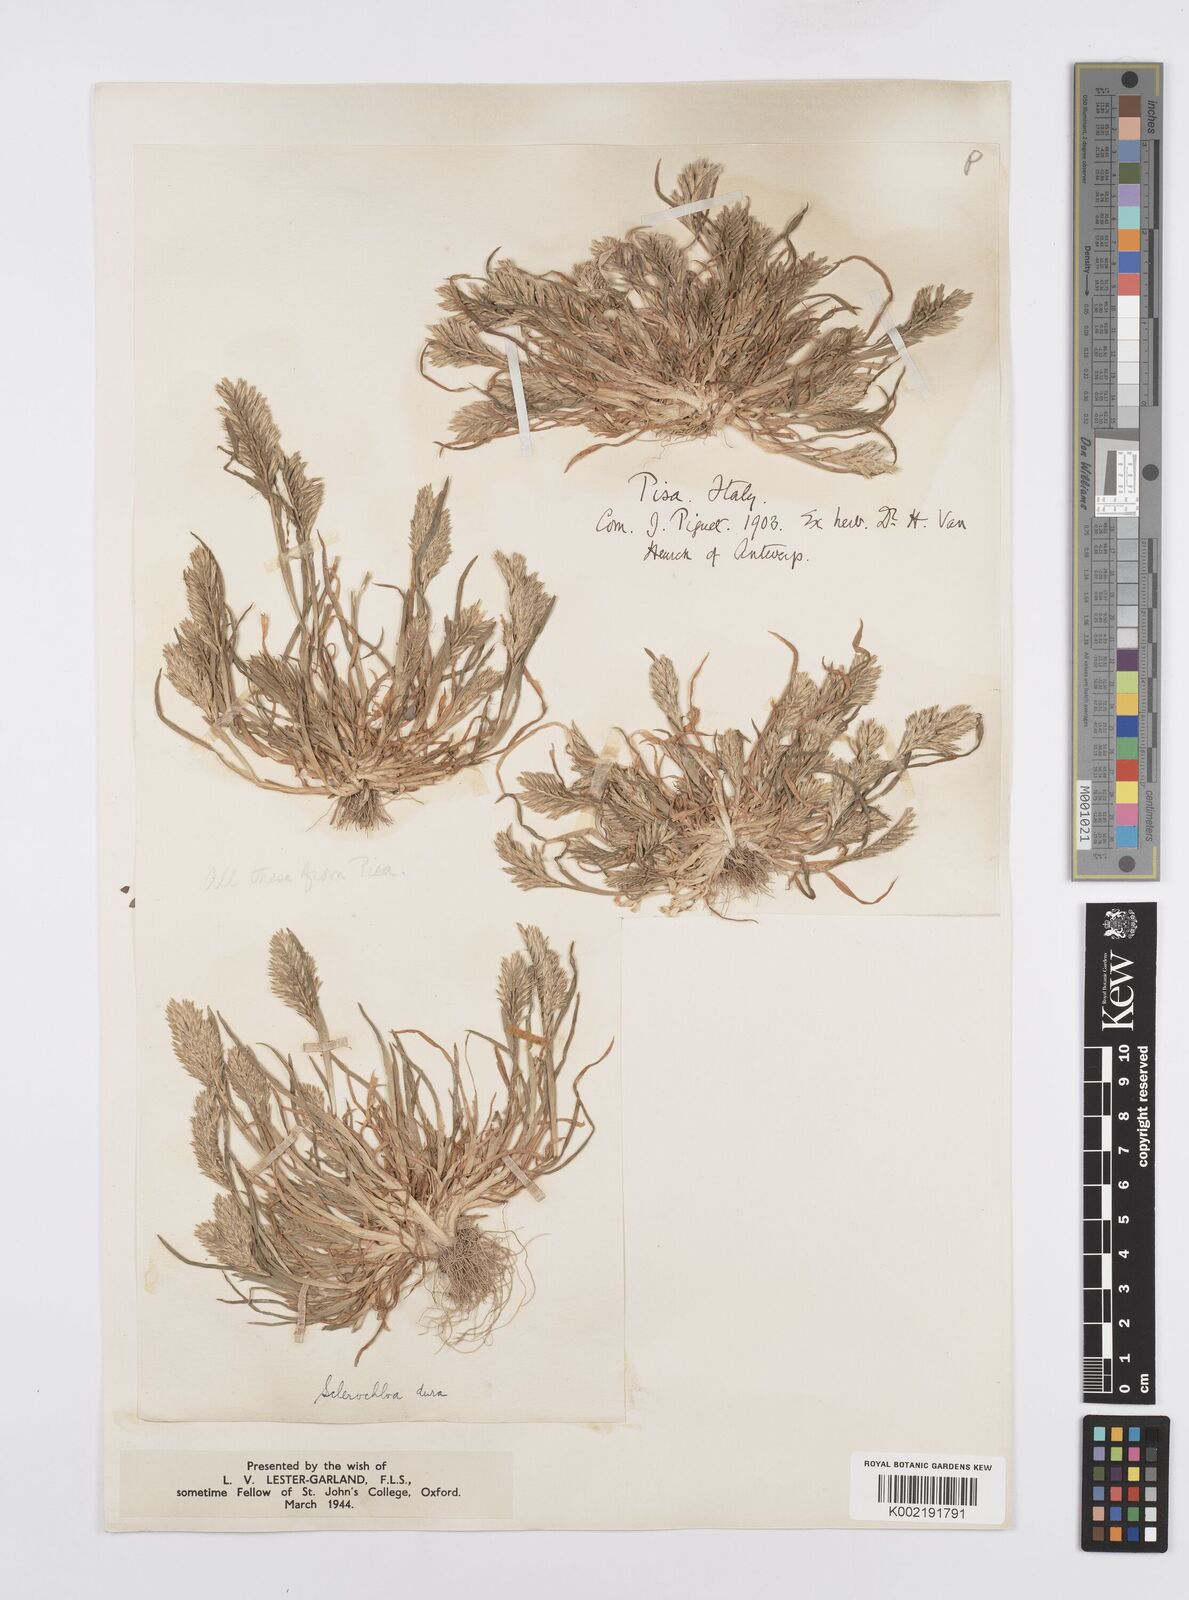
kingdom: Plantae
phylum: Tracheophyta
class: Liliopsida
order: Poales
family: Poaceae
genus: Sclerochloa
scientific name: Sclerochloa dura
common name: Common hardgrass
